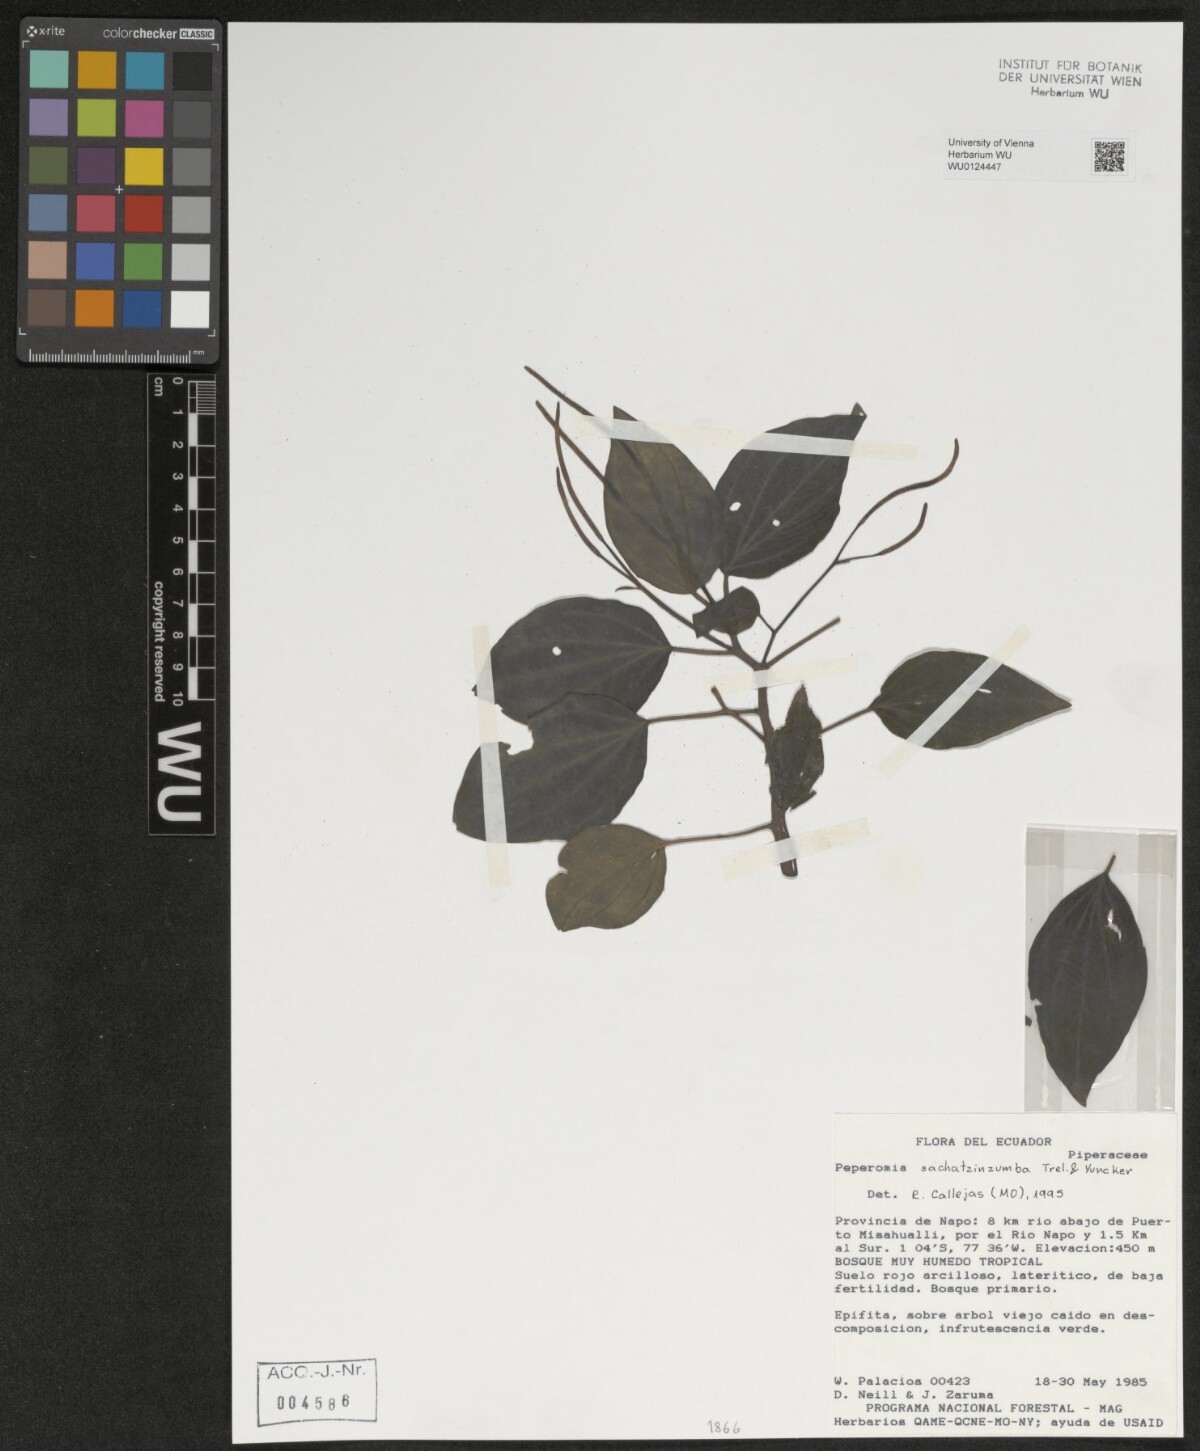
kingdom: Plantae
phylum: Tracheophyta
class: Magnoliopsida
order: Piperales
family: Piperaceae
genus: Peperomia
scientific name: Peperomia sachatzinzumba
